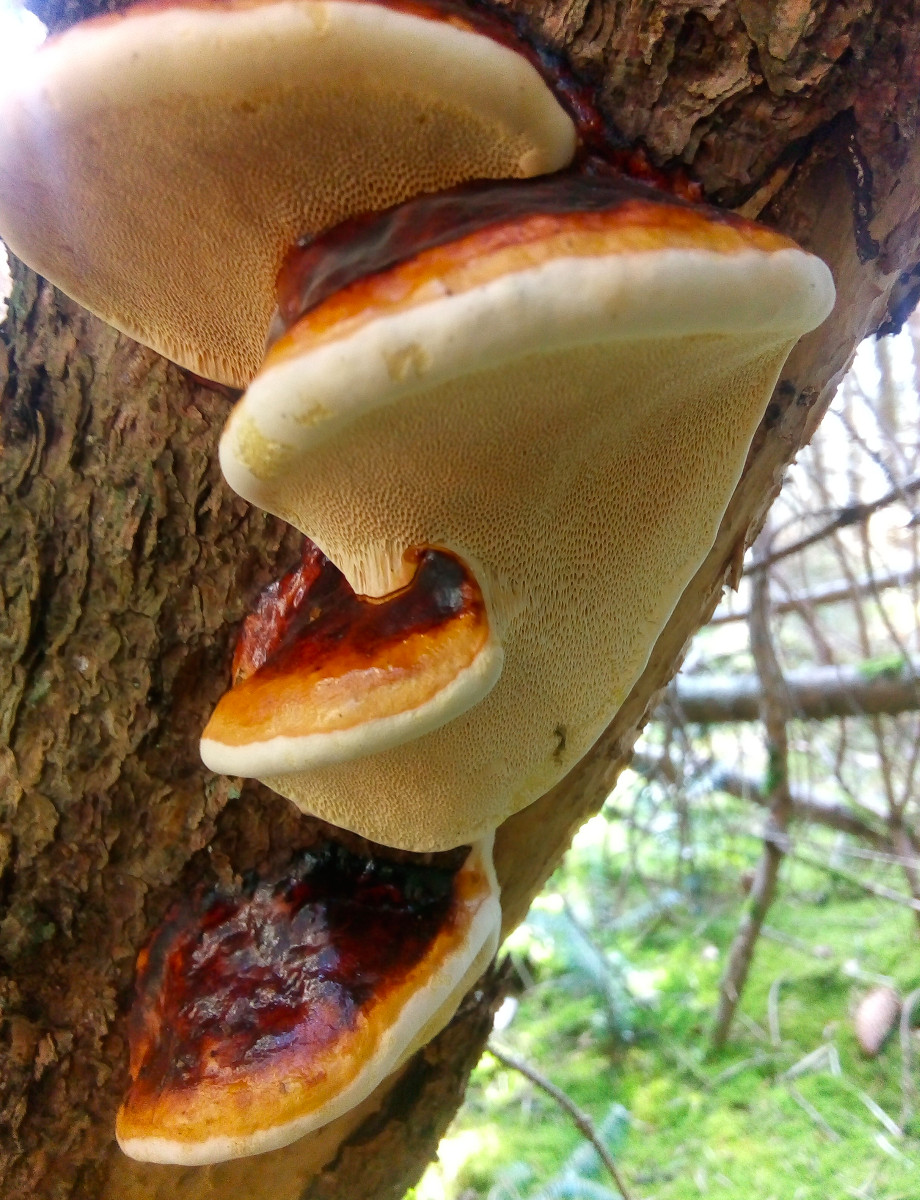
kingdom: Fungi
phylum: Basidiomycota
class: Agaricomycetes
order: Polyporales
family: Fomitopsidaceae
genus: Fomitopsis
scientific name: Fomitopsis pinicola
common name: randbæltet hovporesvamp
